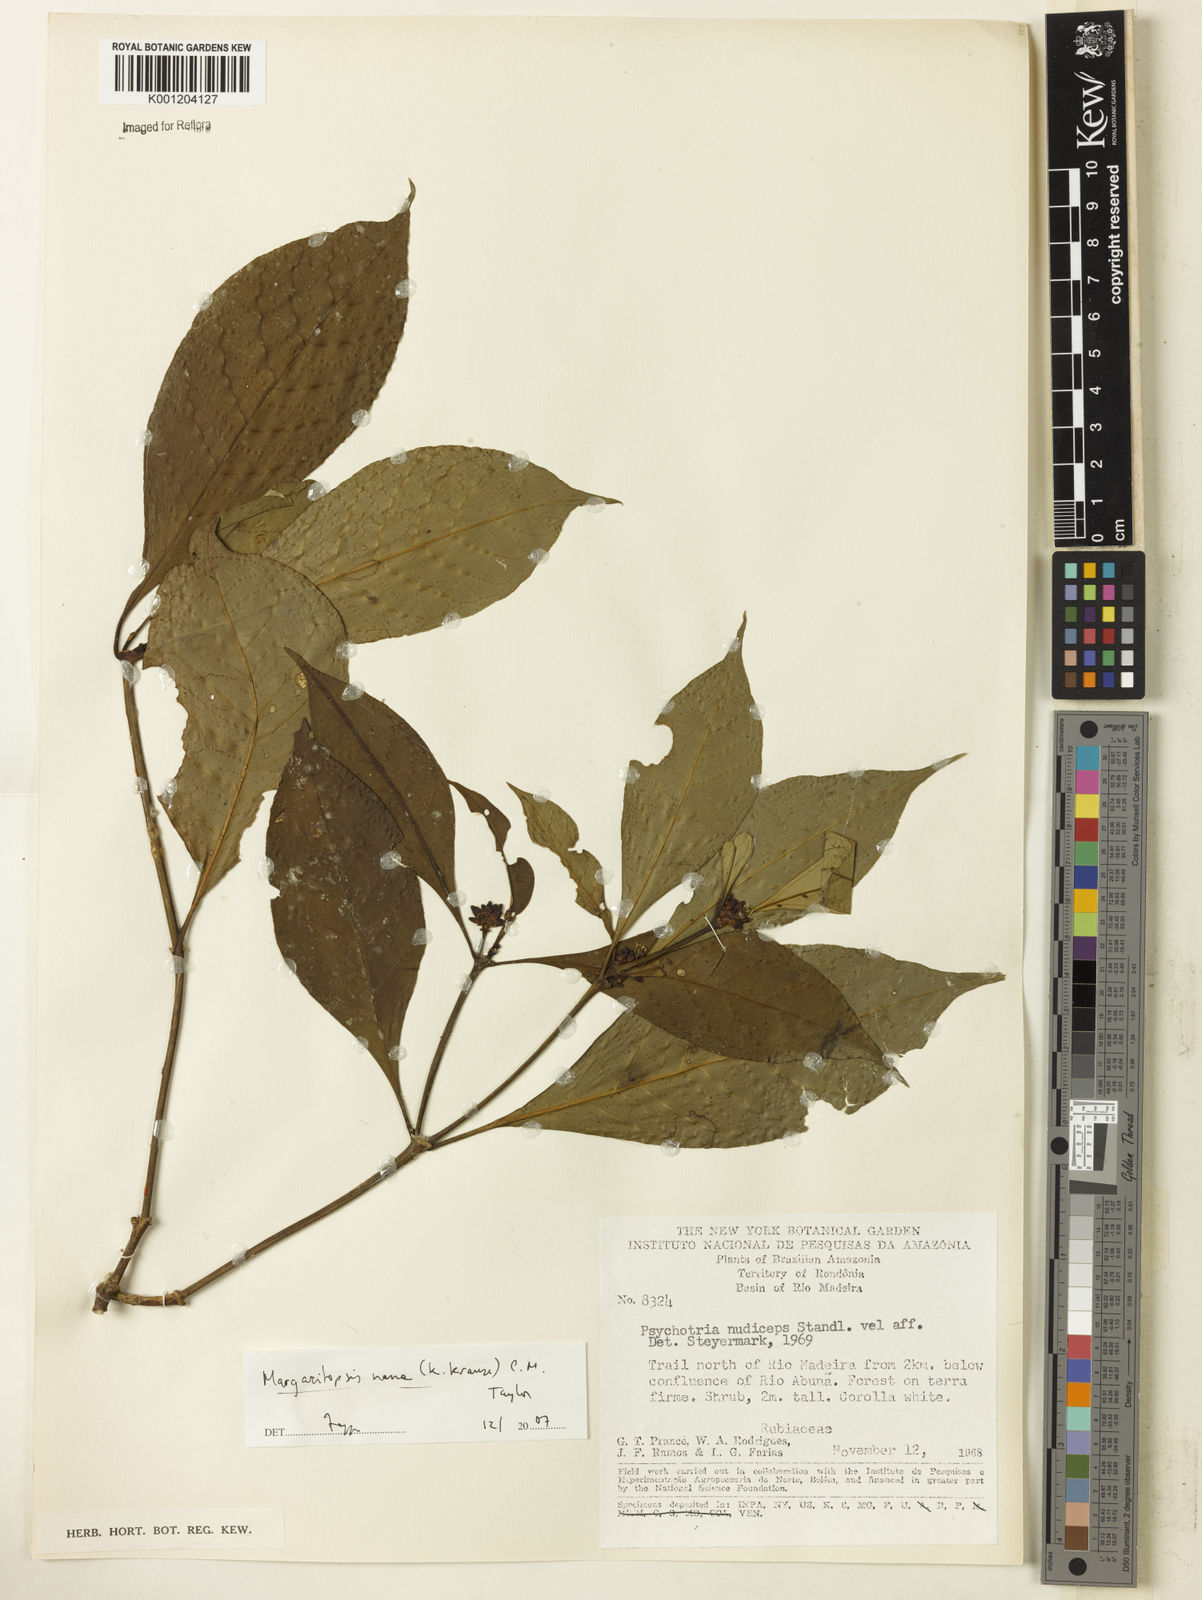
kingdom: Plantae
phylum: Tracheophyta
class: Magnoliopsida
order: Gentianales
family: Rubiaceae
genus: Eumachia
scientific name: Eumachia nana
